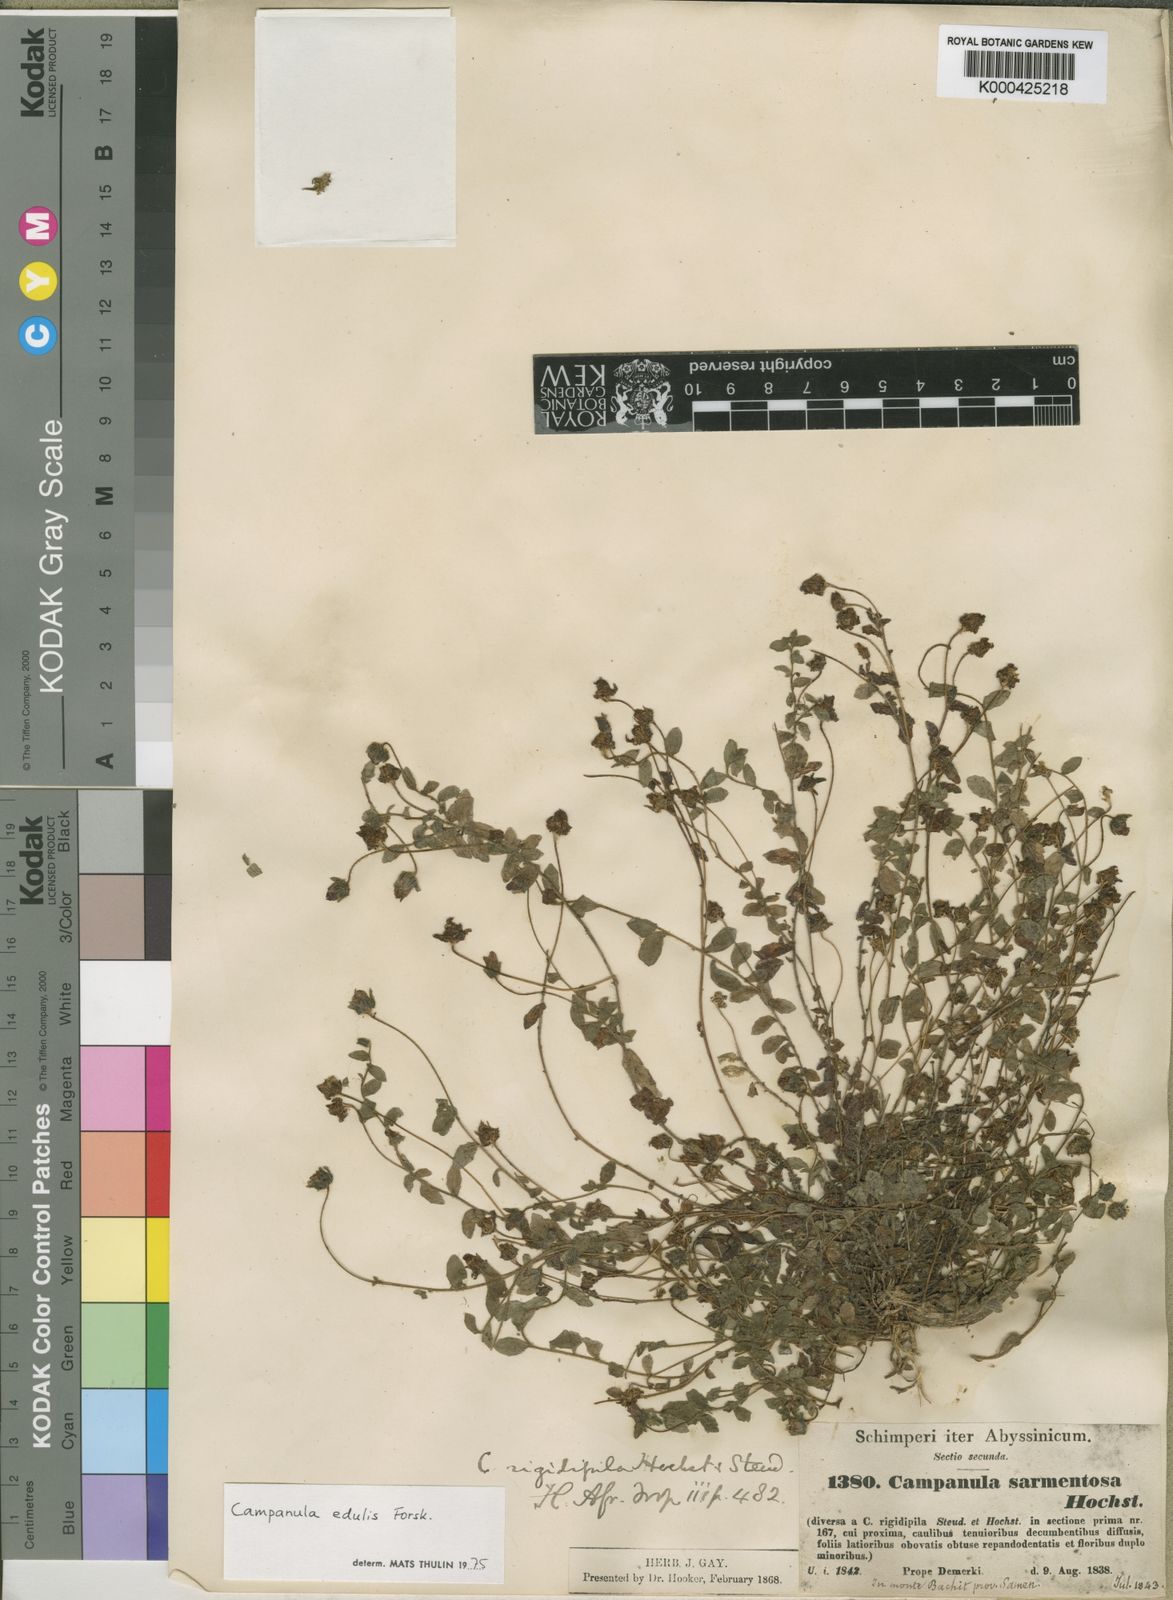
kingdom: Plantae
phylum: Tracheophyta
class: Magnoliopsida
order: Asterales
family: Campanulaceae
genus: Campanula
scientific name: Campanula edulis
